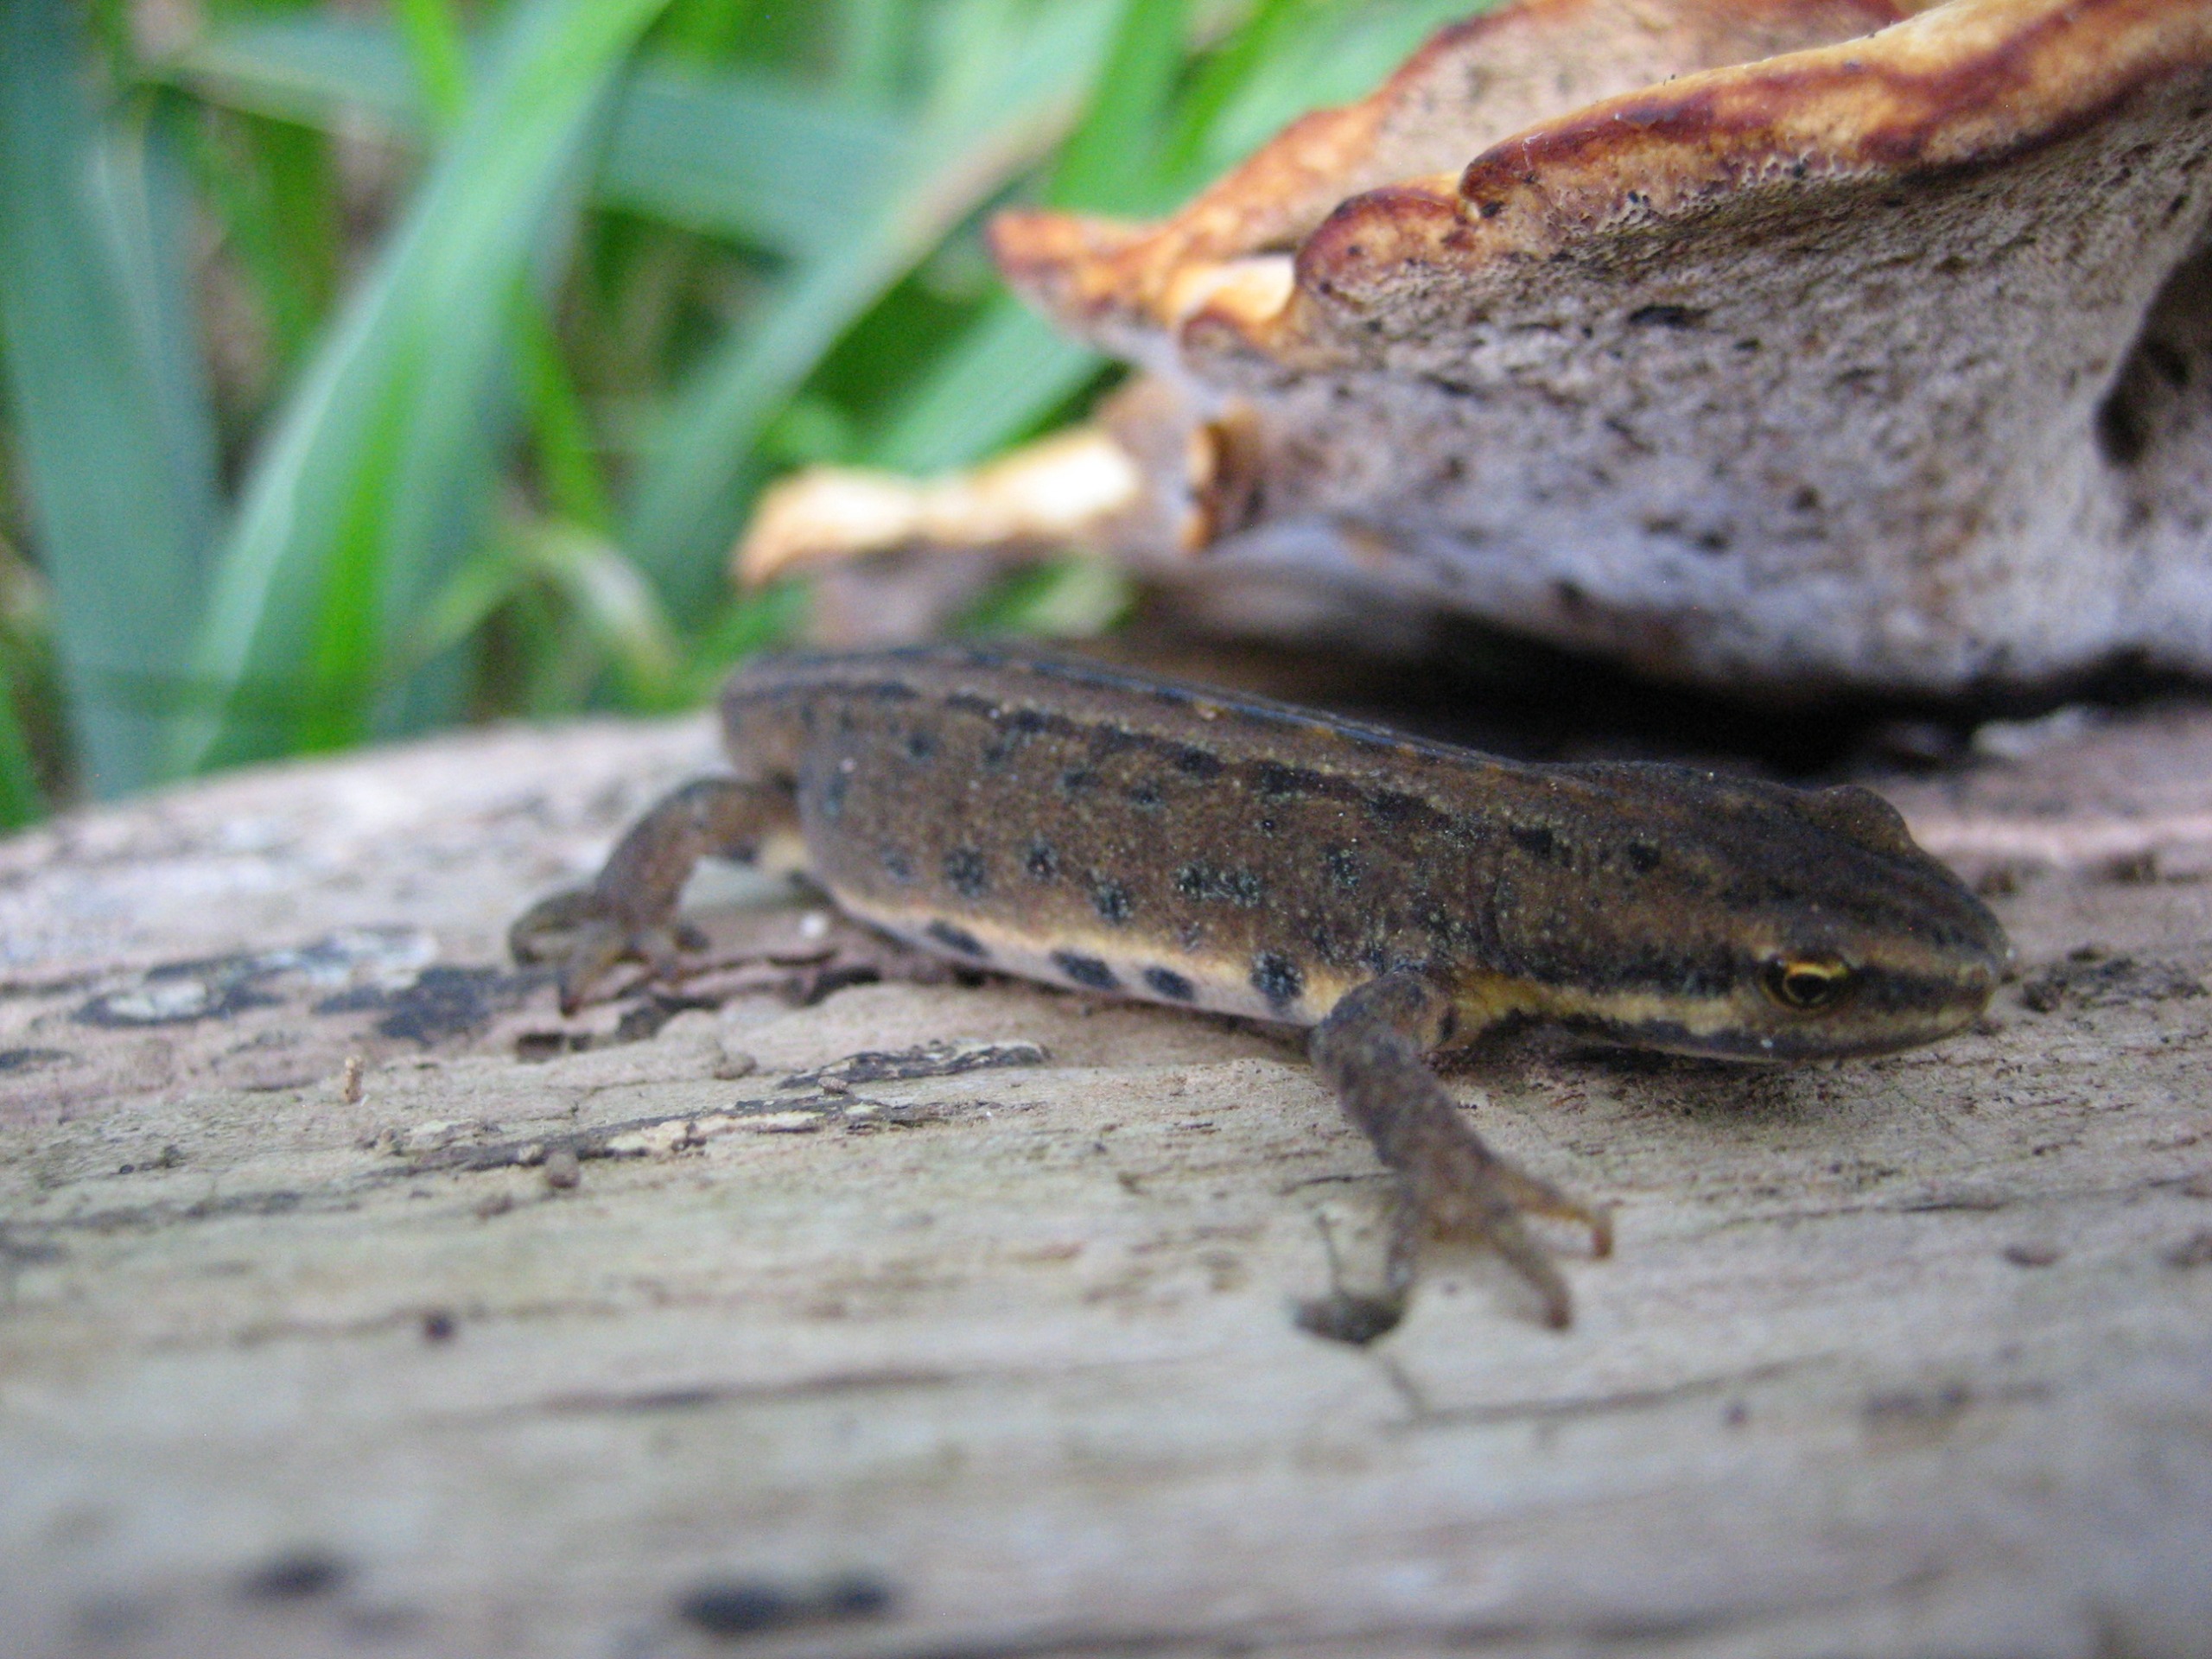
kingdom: Animalia
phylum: Chordata
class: Amphibia
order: Caudata
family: Salamandridae
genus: Lissotriton
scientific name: Lissotriton vulgaris
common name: Lille vandsalamander
